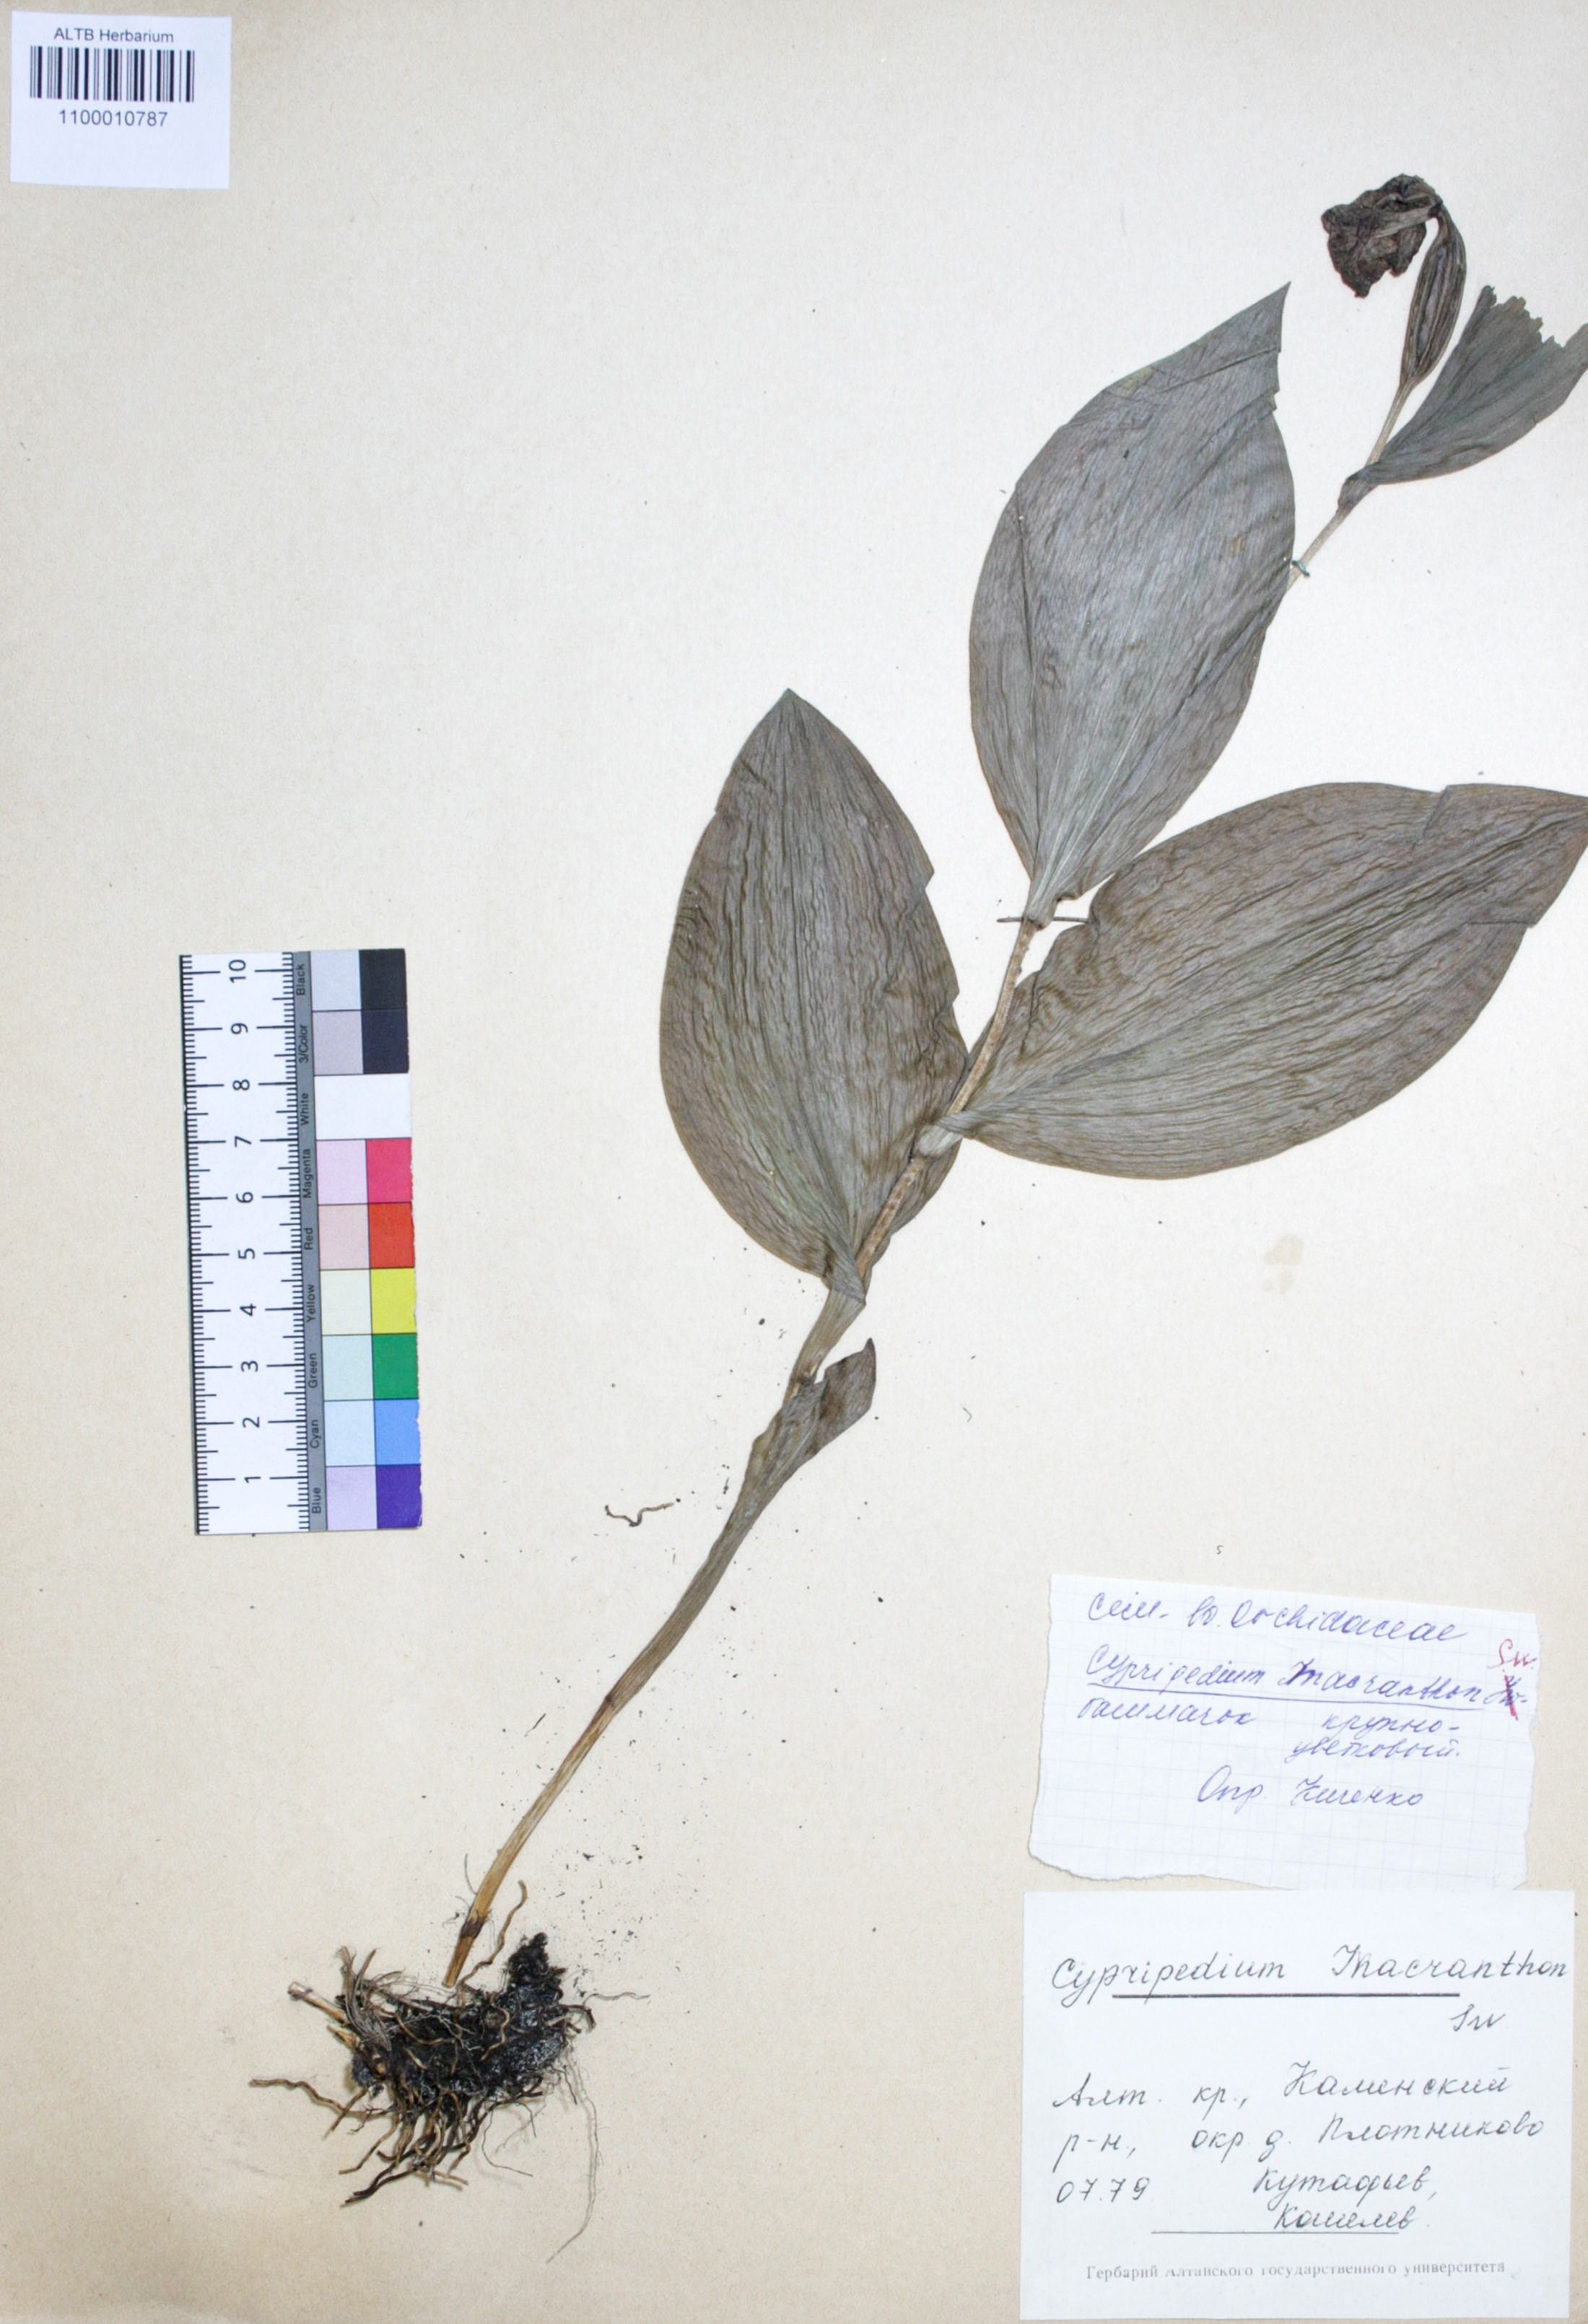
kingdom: Plantae
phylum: Tracheophyta
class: Liliopsida
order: Asparagales
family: Orchidaceae
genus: Cypripedium
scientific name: Cypripedium macranthon
